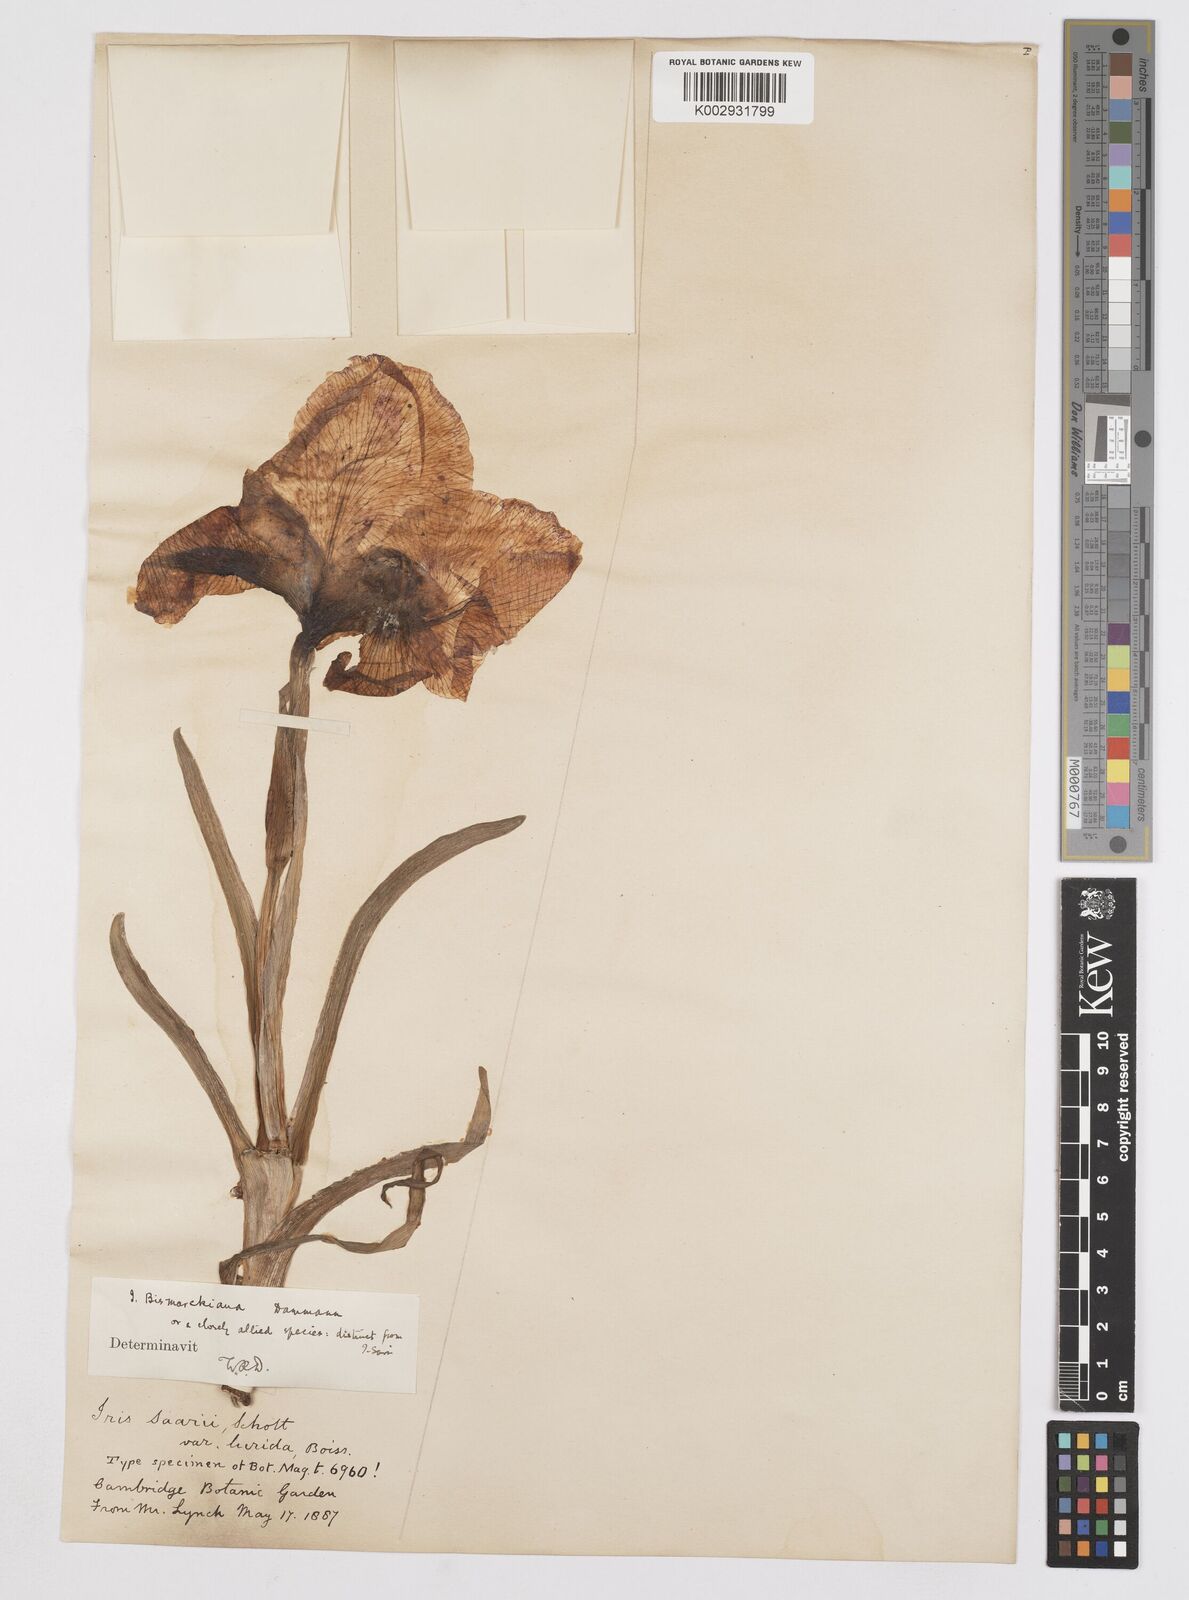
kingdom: Plantae
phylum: Tracheophyta
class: Liliopsida
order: Asparagales
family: Iridaceae
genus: Iris
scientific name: Iris bismarckiana
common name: Nazareth iris
